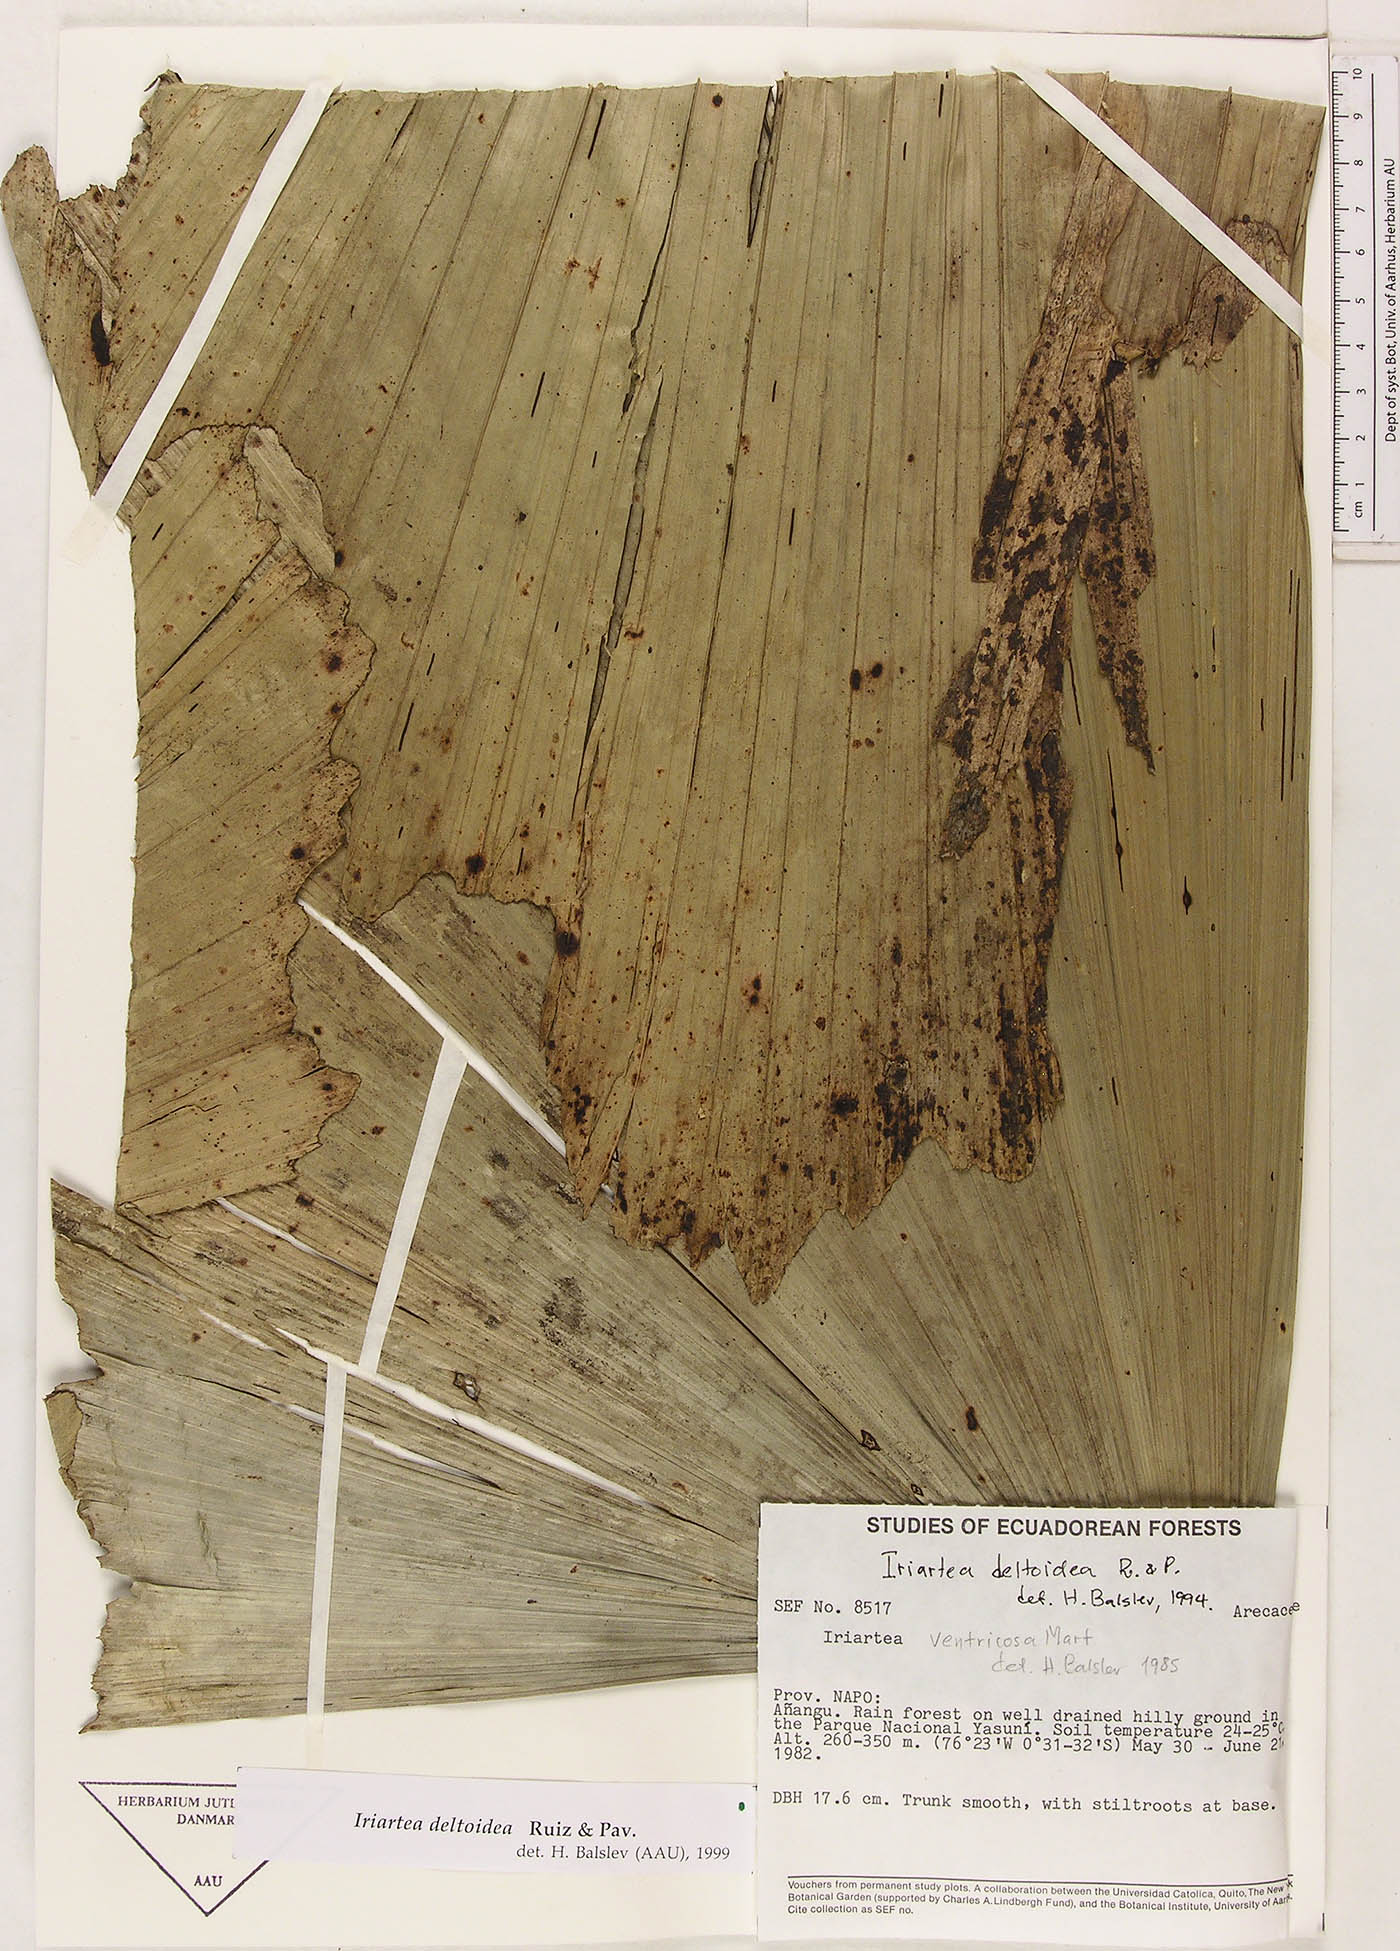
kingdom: Plantae
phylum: Tracheophyta
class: Liliopsida
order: Arecales
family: Arecaceae
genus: Iriartea
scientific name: Iriartea deltoidea
